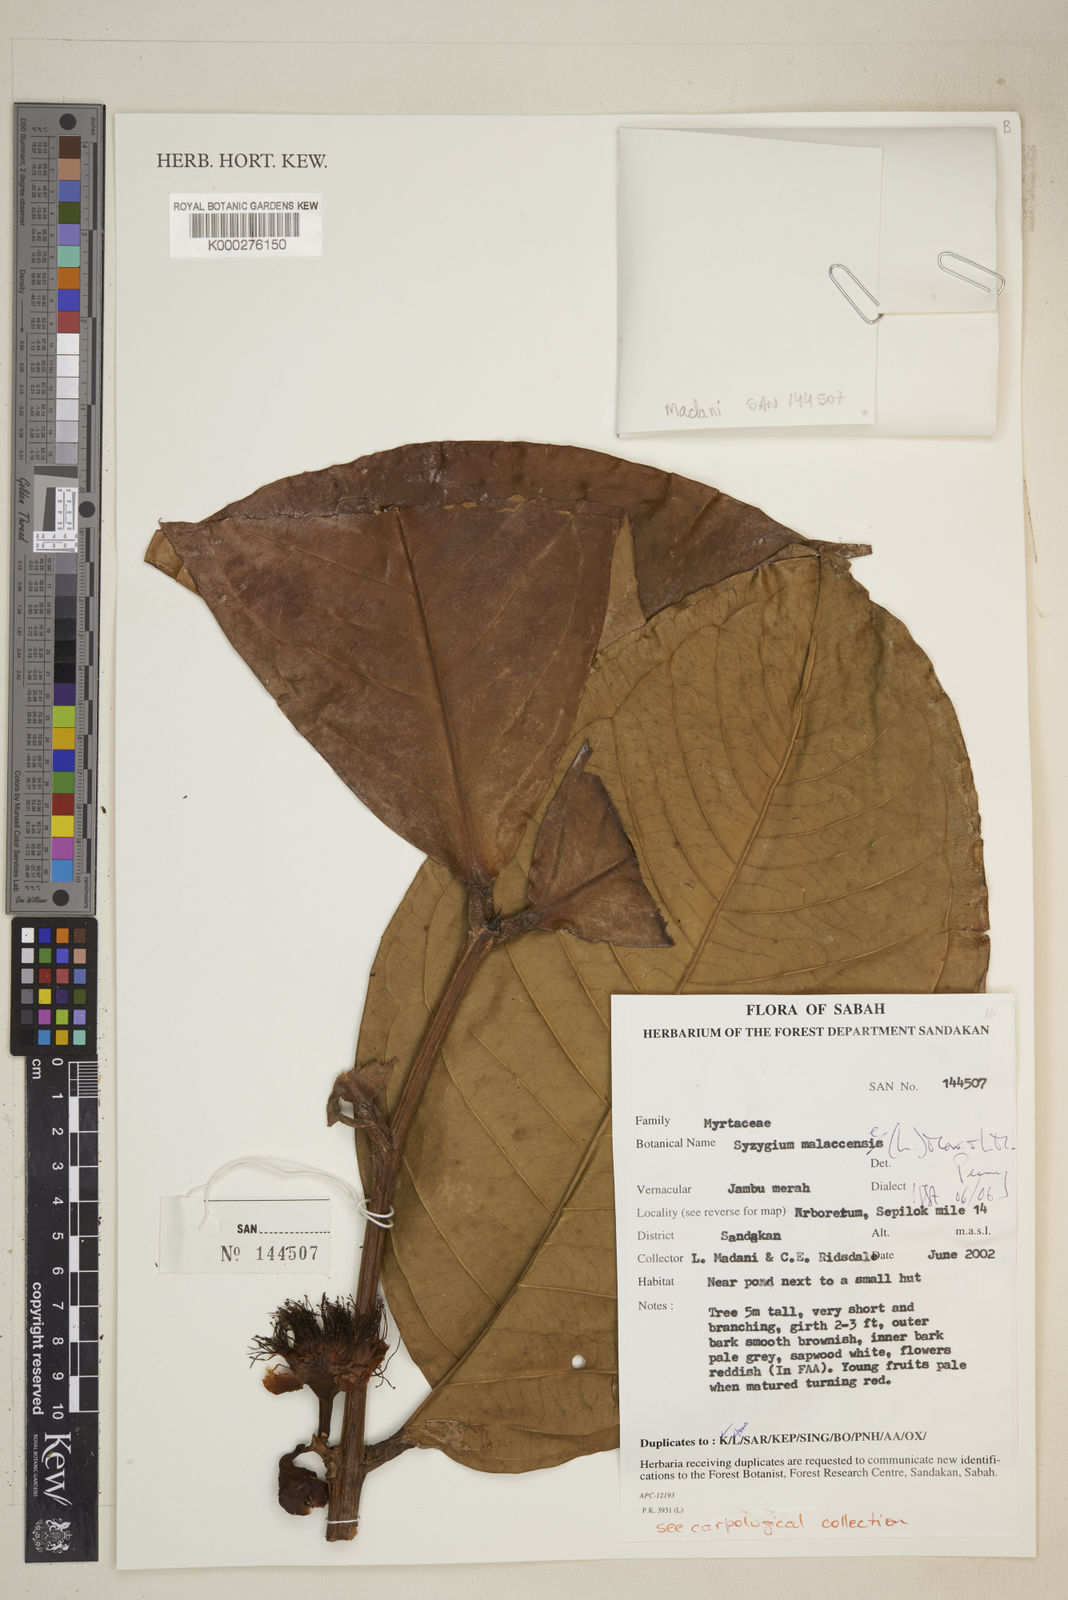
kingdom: Plantae
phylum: Tracheophyta
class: Magnoliopsida
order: Myrtales
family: Myrtaceae
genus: Syzygium
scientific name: Syzygium malaccense
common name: Malaysian apple
